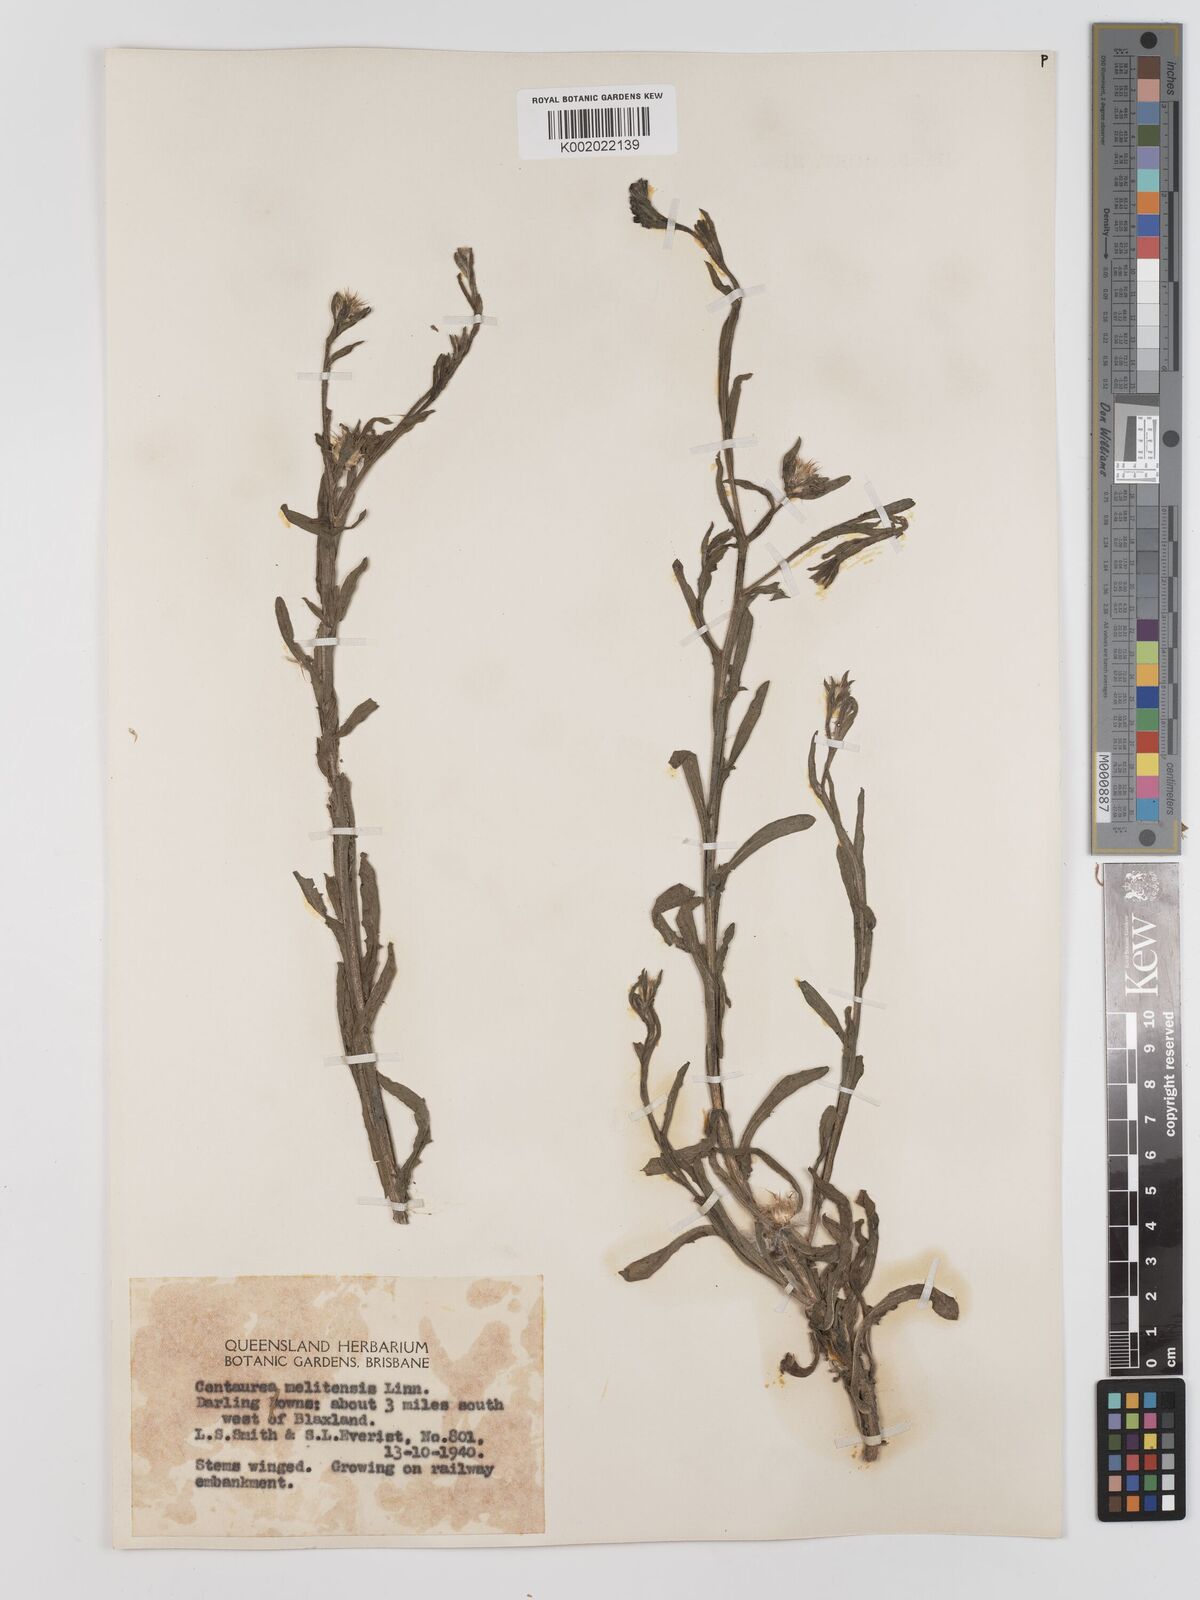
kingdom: Plantae
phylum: Tracheophyta
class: Magnoliopsida
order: Asterales
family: Asteraceae
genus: Centaurea
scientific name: Centaurea melitensis
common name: Maltese star-thistle
